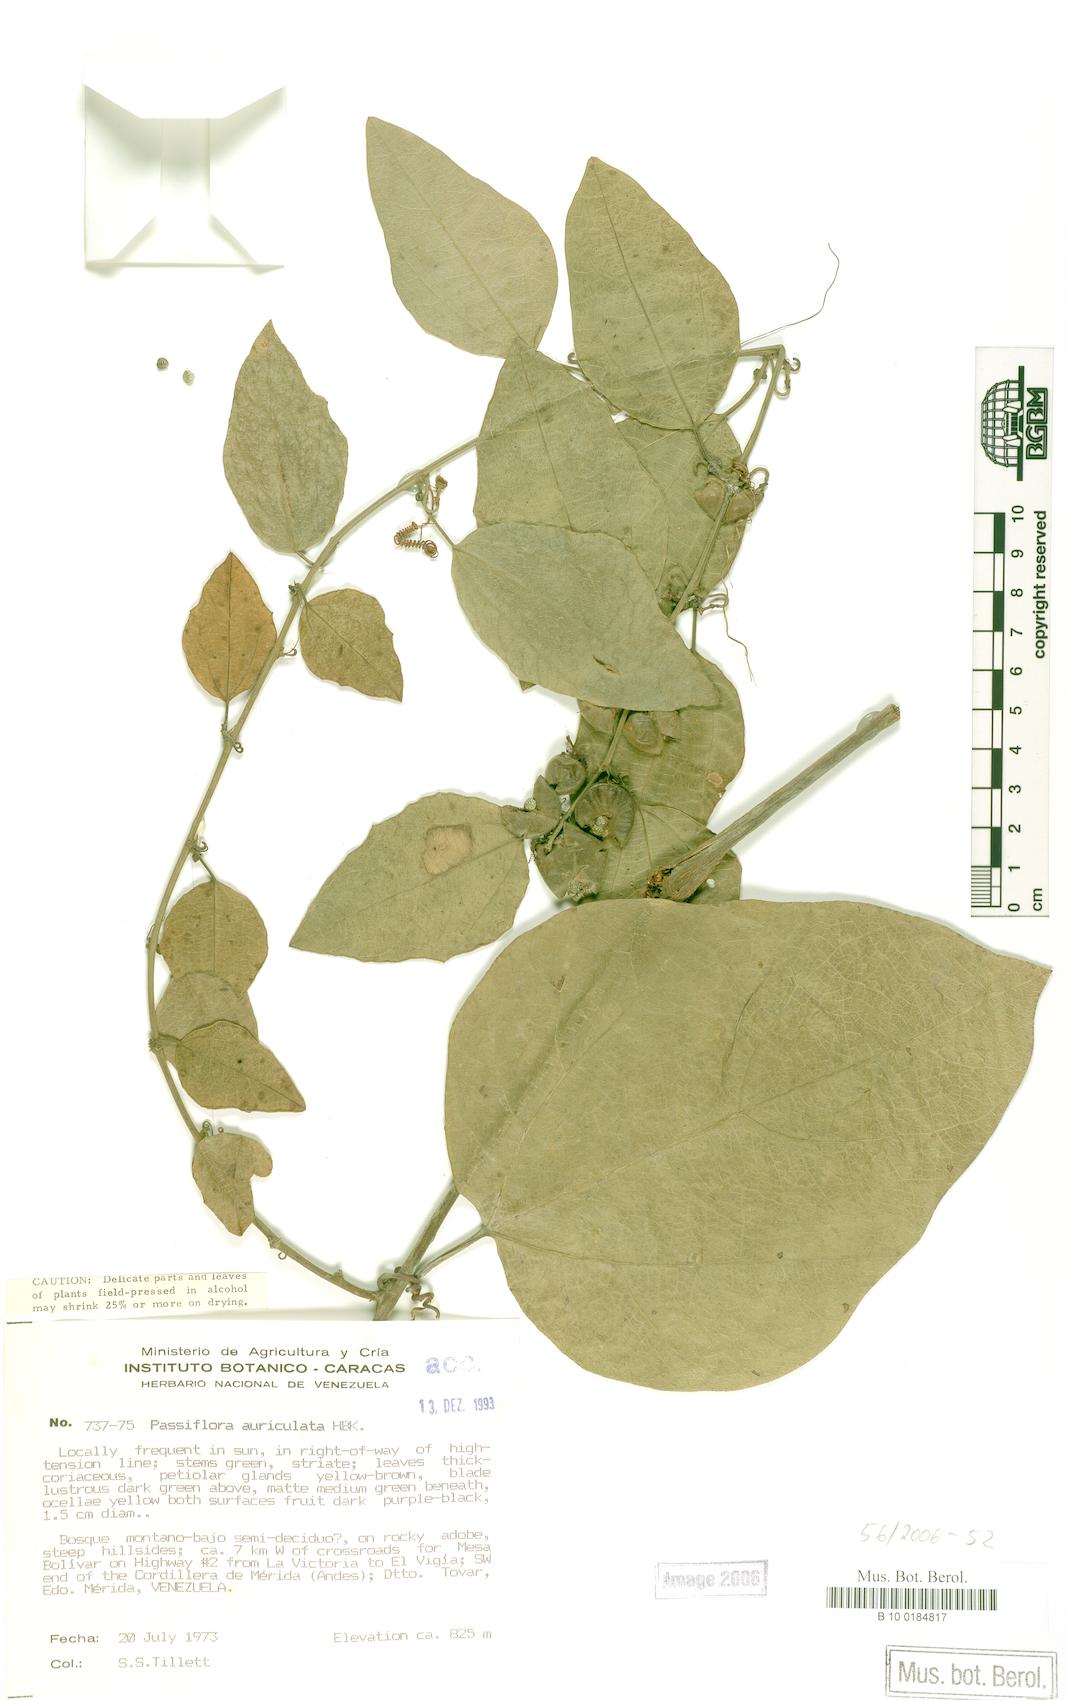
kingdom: Plantae
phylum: Tracheophyta
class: Magnoliopsida
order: Malpighiales
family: Passifloraceae
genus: Passiflora
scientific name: Passiflora auriculata
